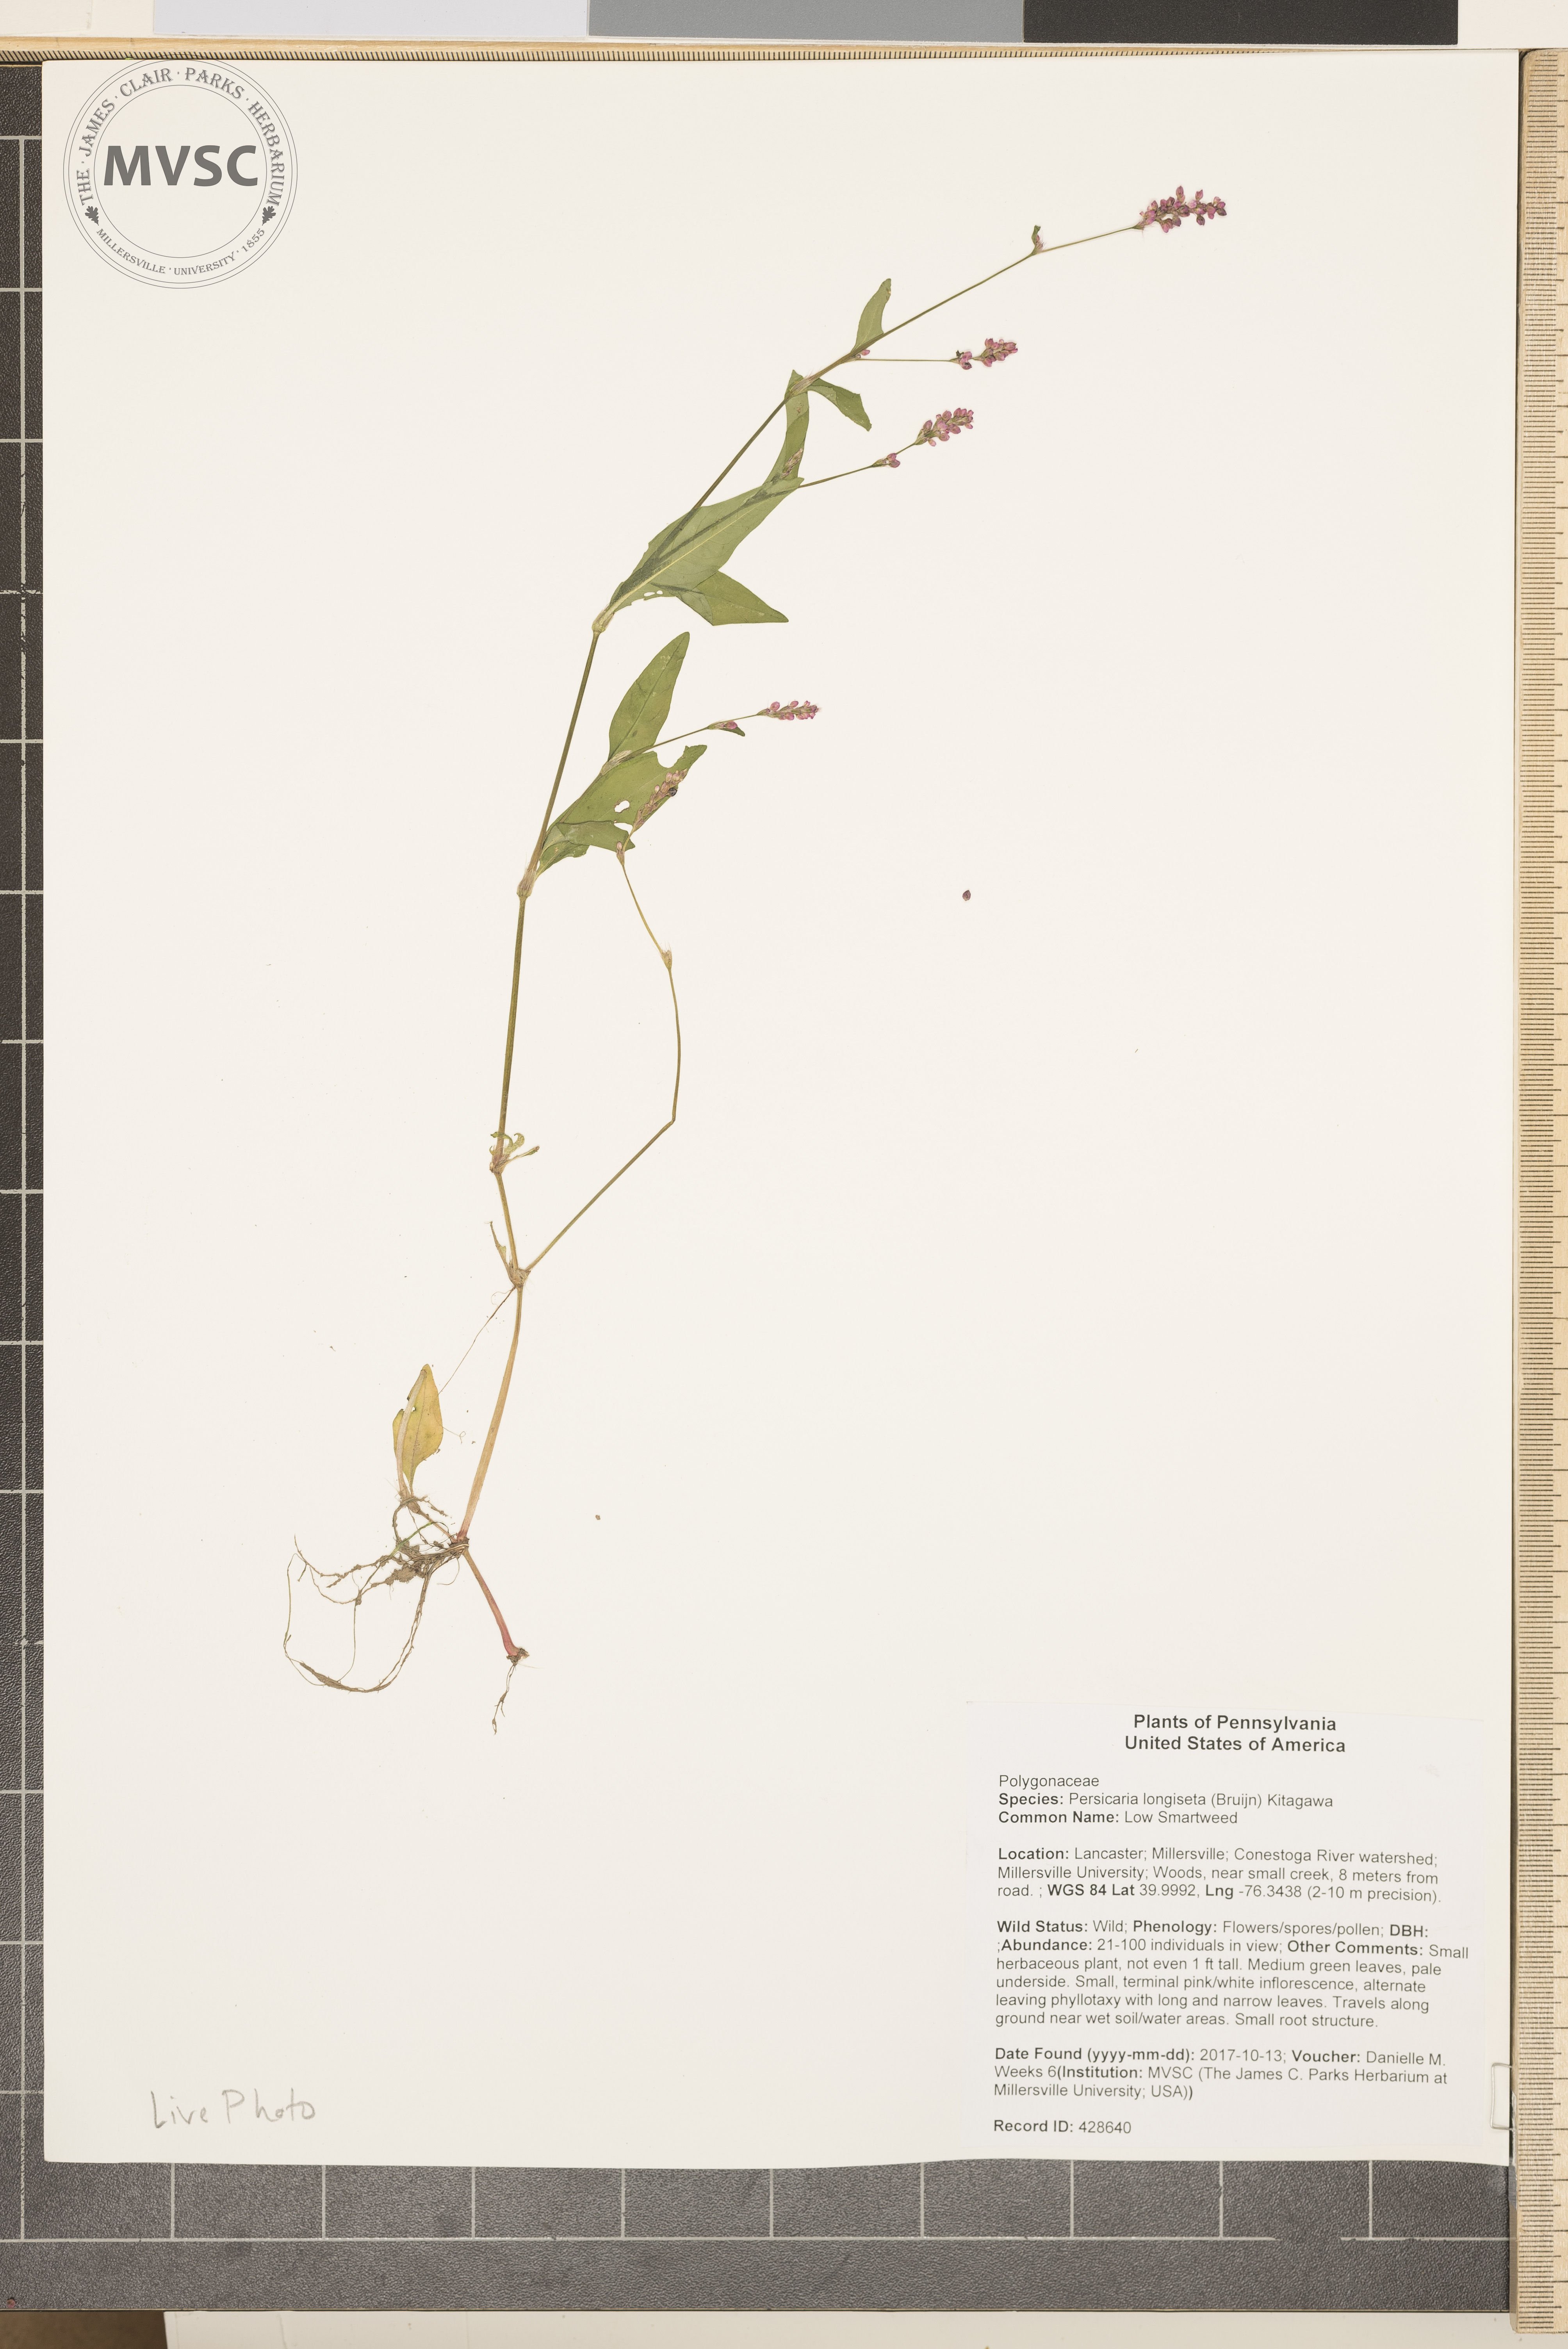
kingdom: Plantae
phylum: Tracheophyta
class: Magnoliopsida
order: Caryophyllales
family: Polygonaceae
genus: Persicaria
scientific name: Persicaria longiseta
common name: Low Smartweed
